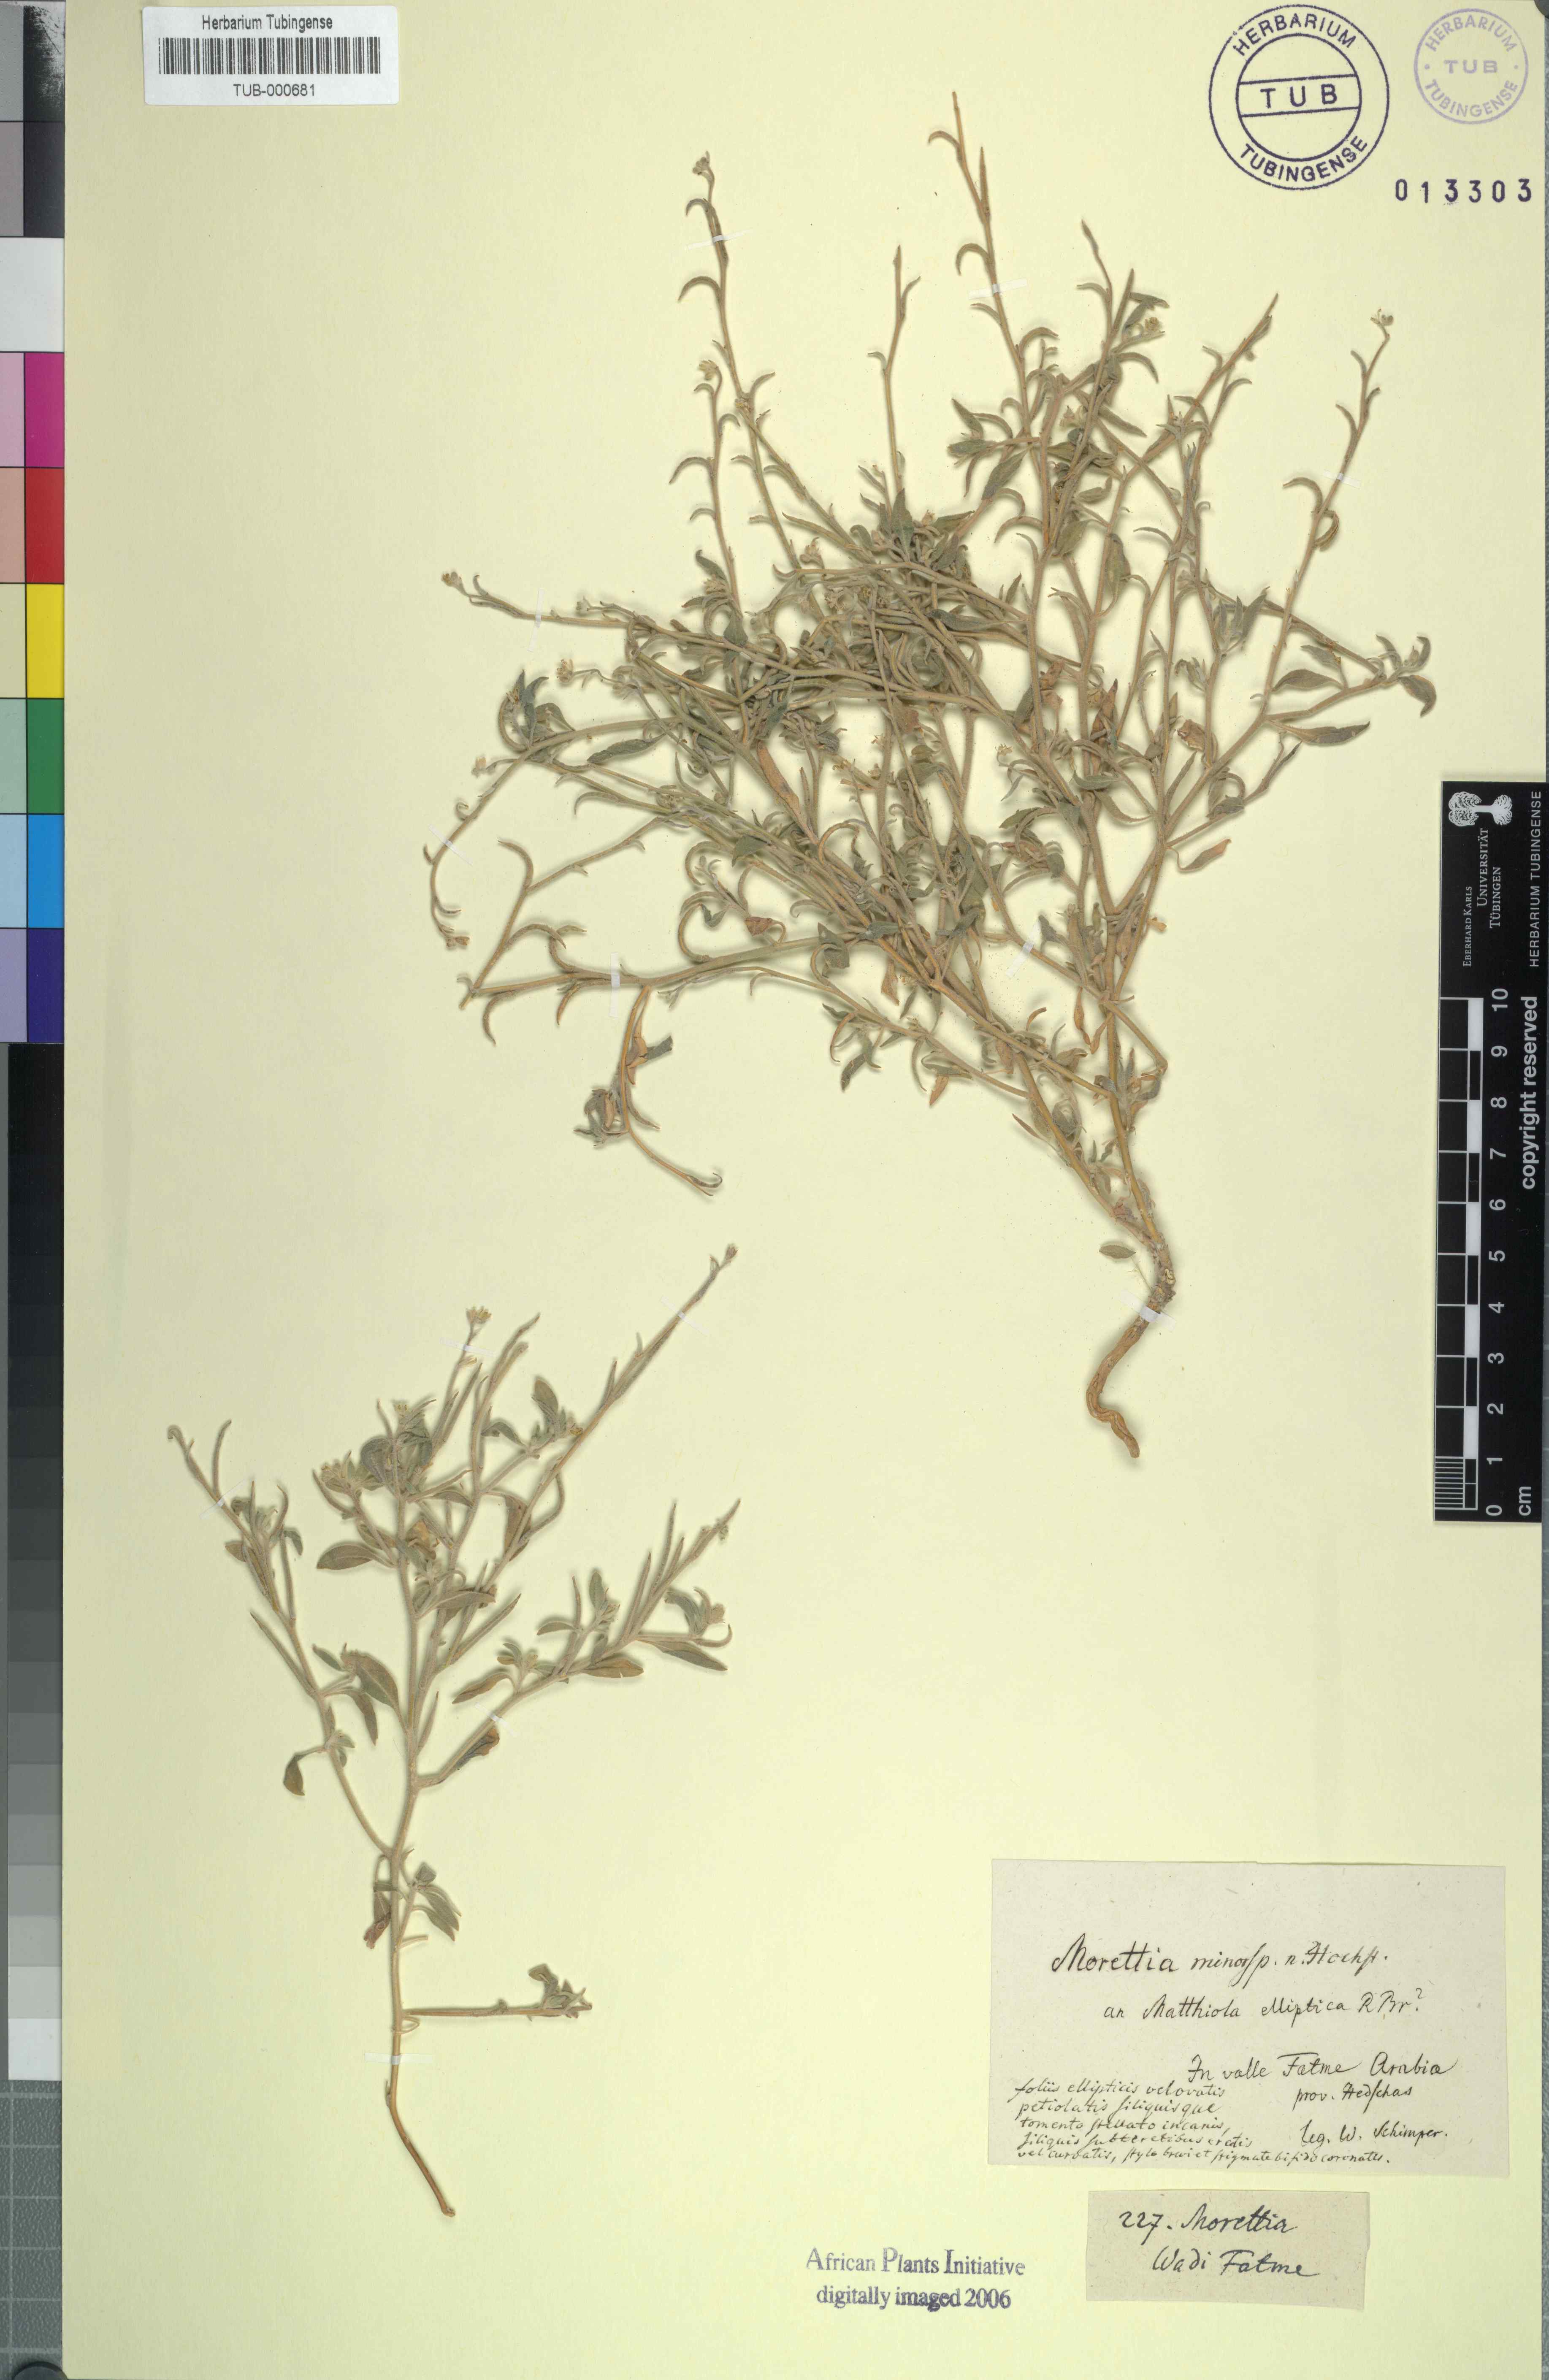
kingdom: Plantae
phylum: Tracheophyta
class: Magnoliopsida
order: Brassicales
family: Brassicaceae
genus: Morettia
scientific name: Morettia
